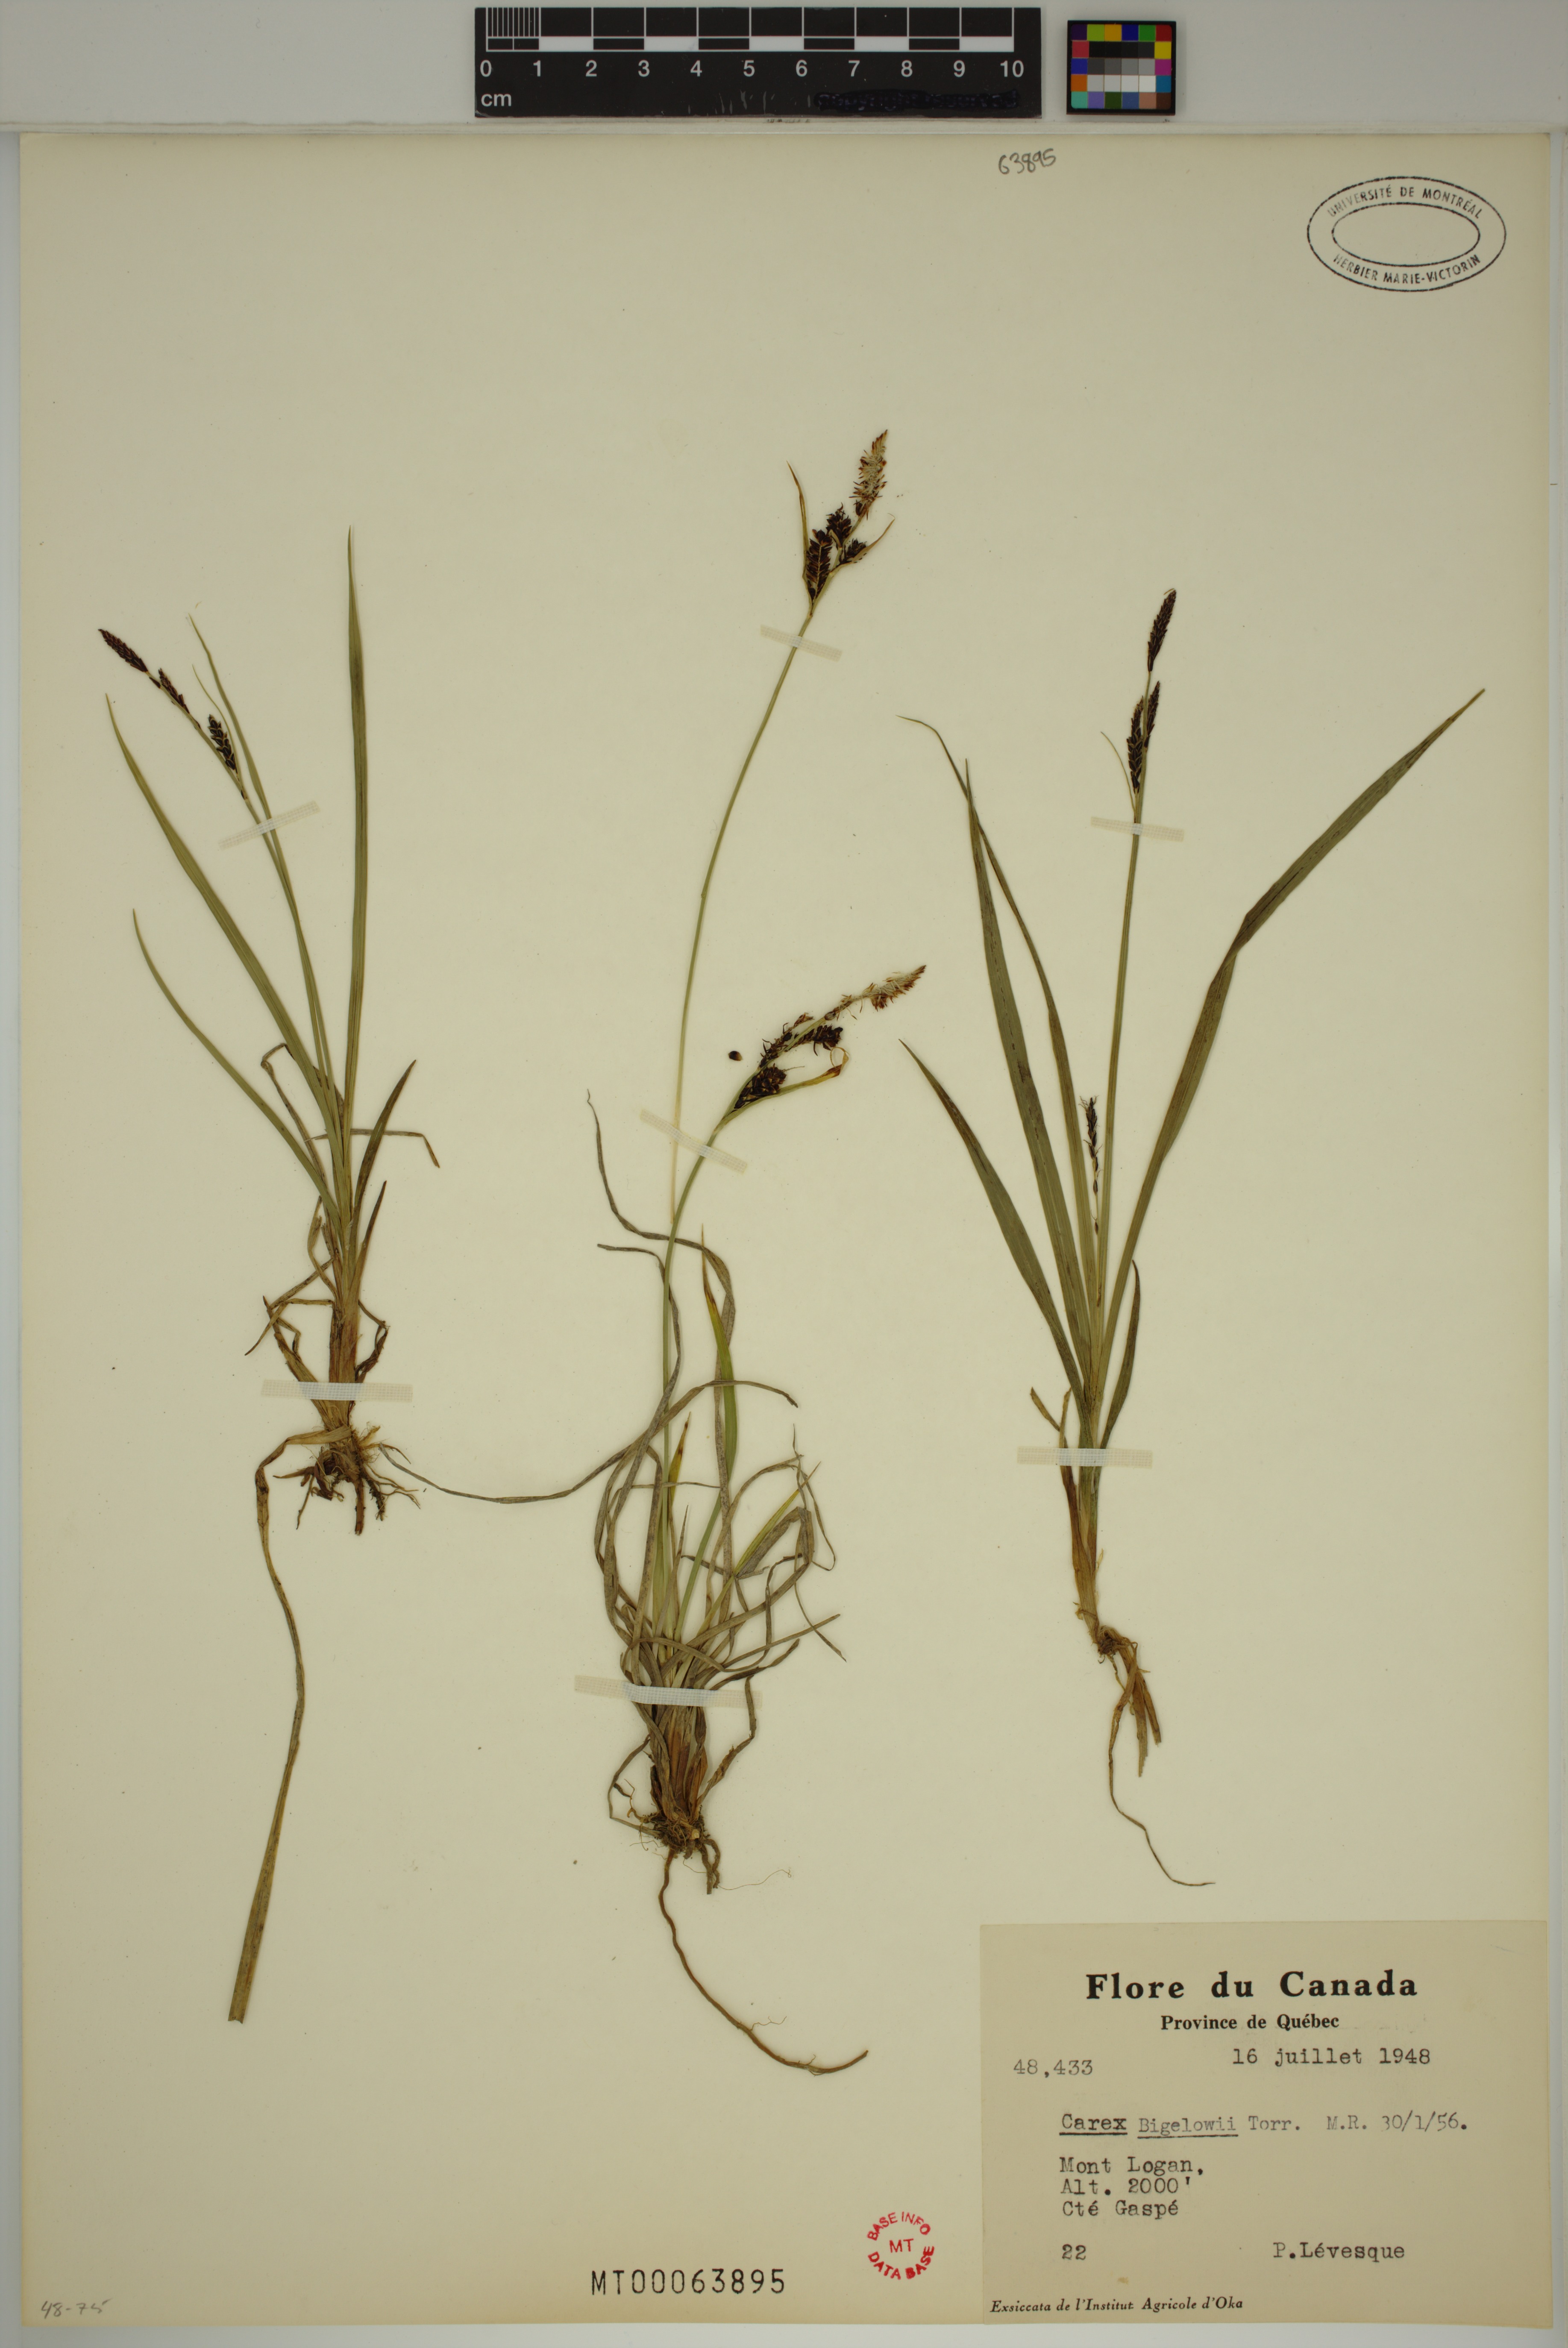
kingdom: Plantae
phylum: Tracheophyta
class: Liliopsida
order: Poales
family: Cyperaceae
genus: Carex
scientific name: Carex bigelowii
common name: Stiff sedge
